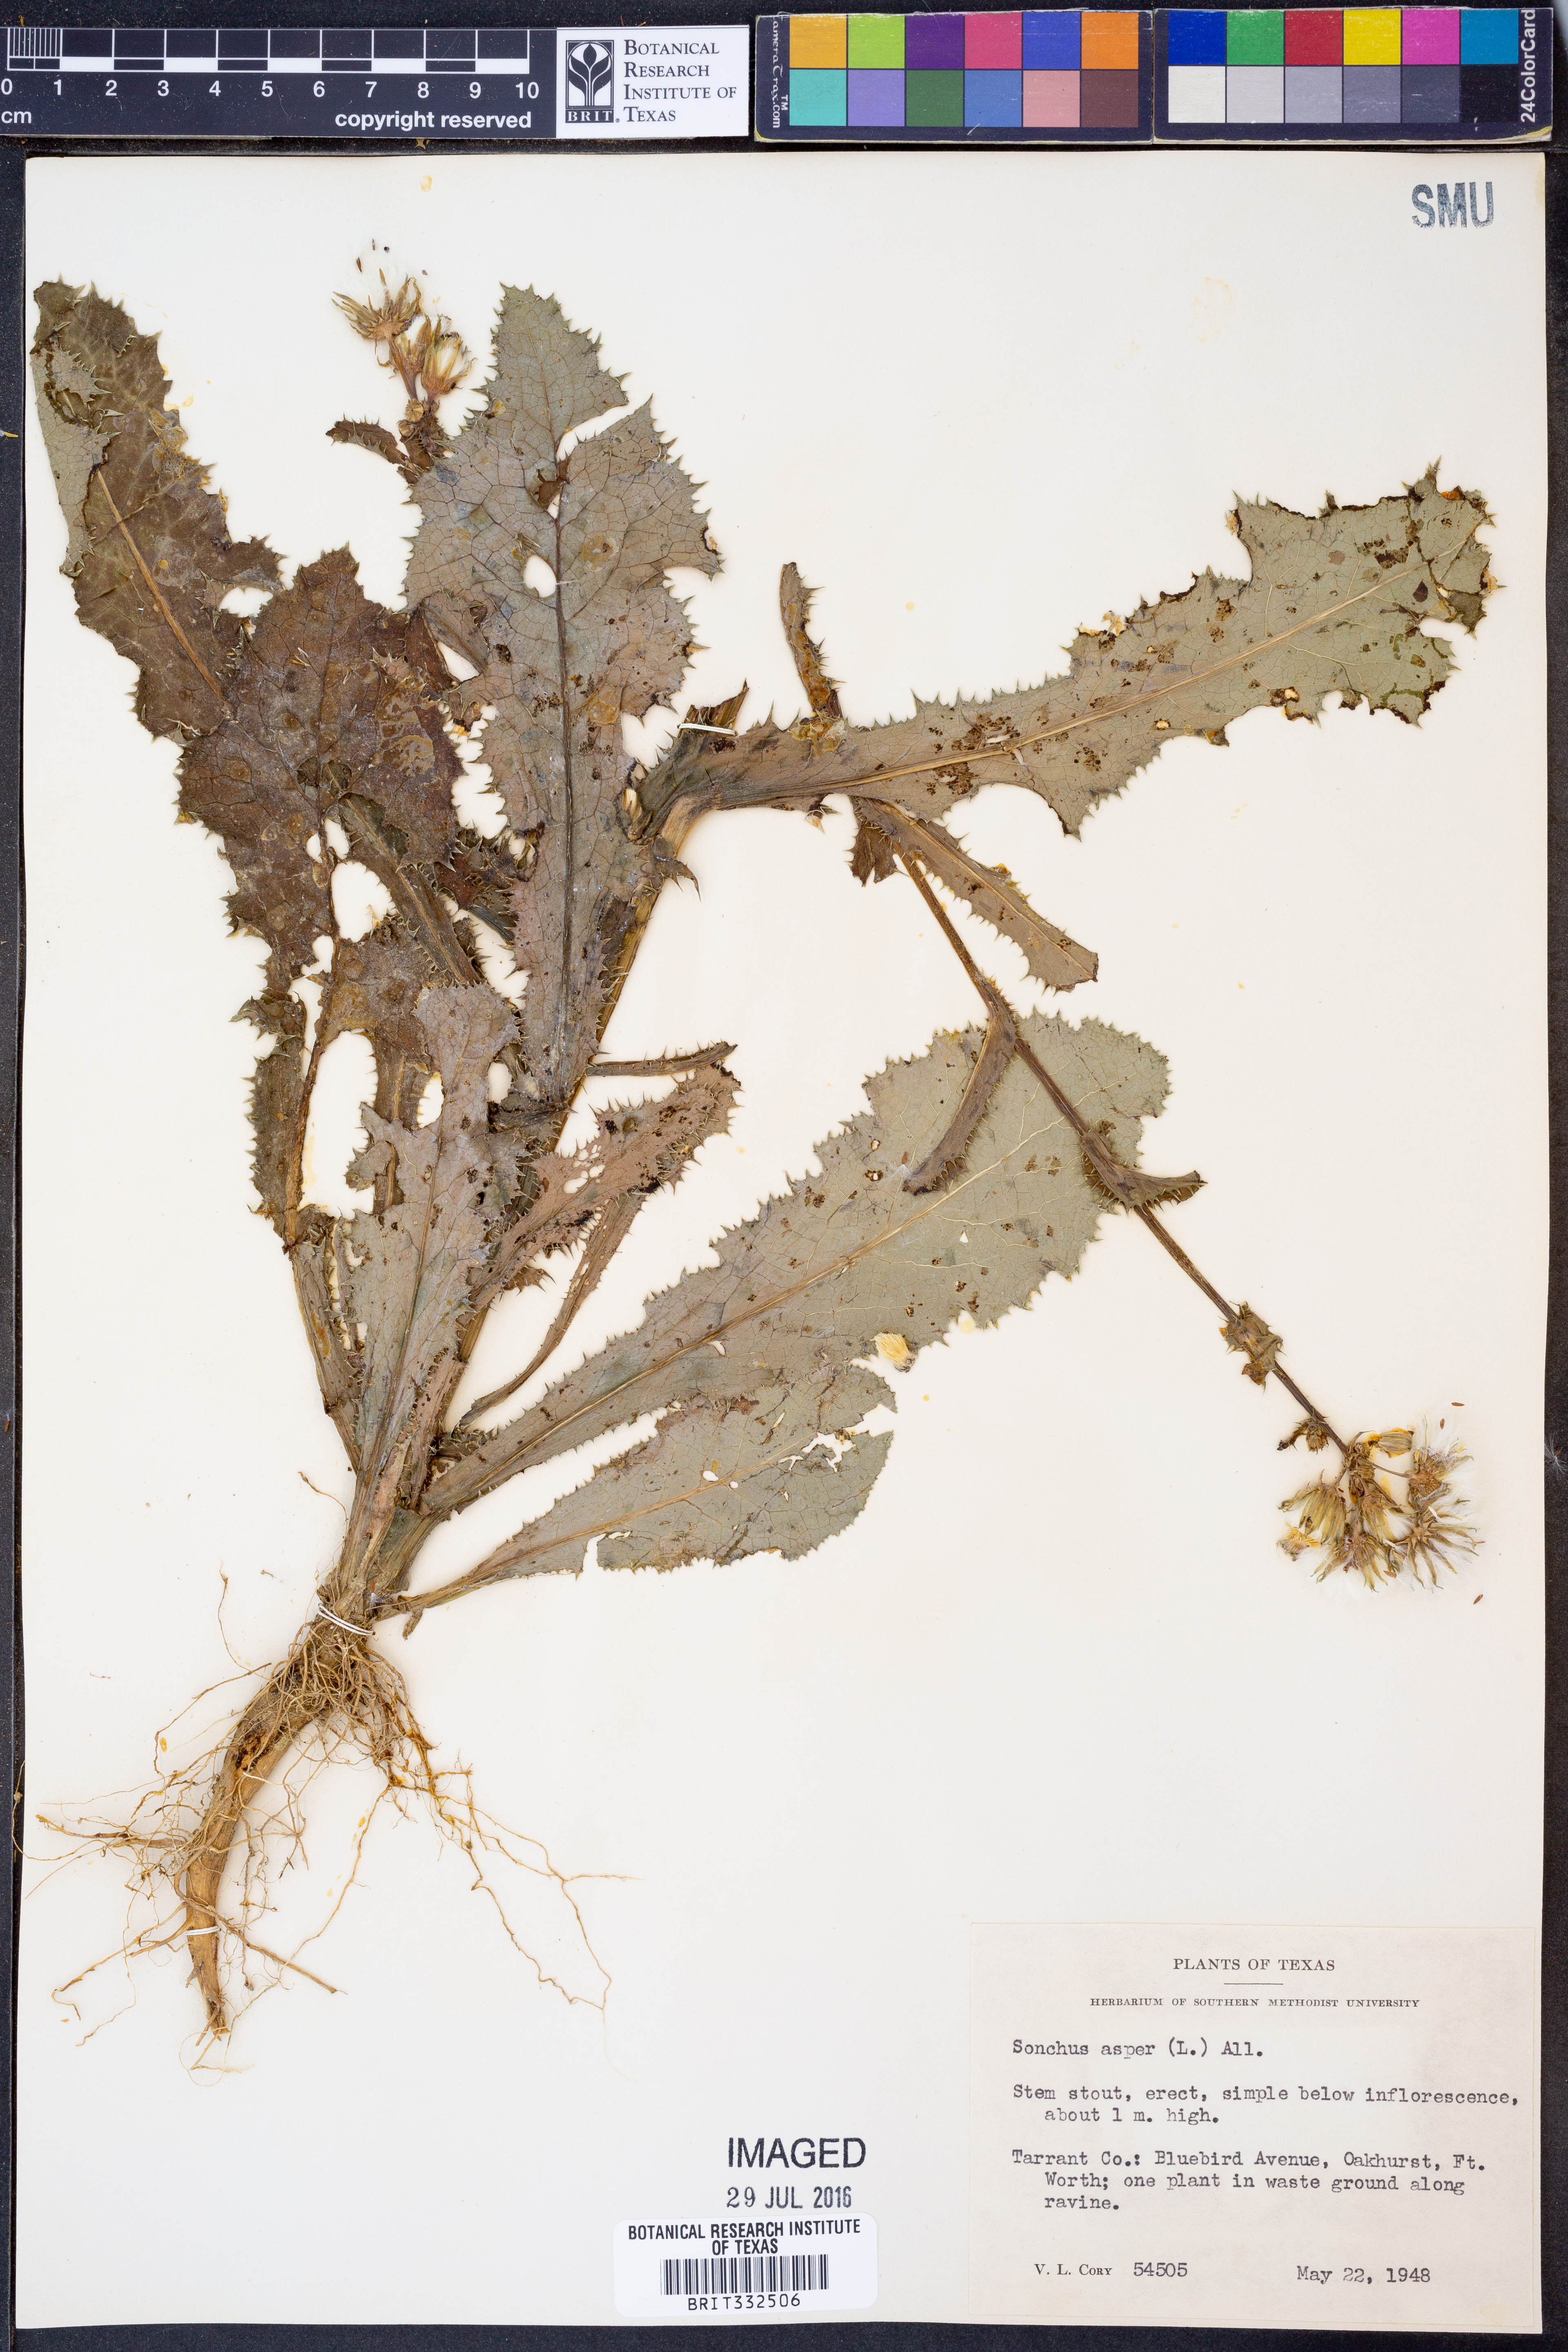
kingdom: Plantae
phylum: Tracheophyta
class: Magnoliopsida
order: Asterales
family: Asteraceae
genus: Sonchus
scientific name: Sonchus asper
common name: Prickly sow-thistle
